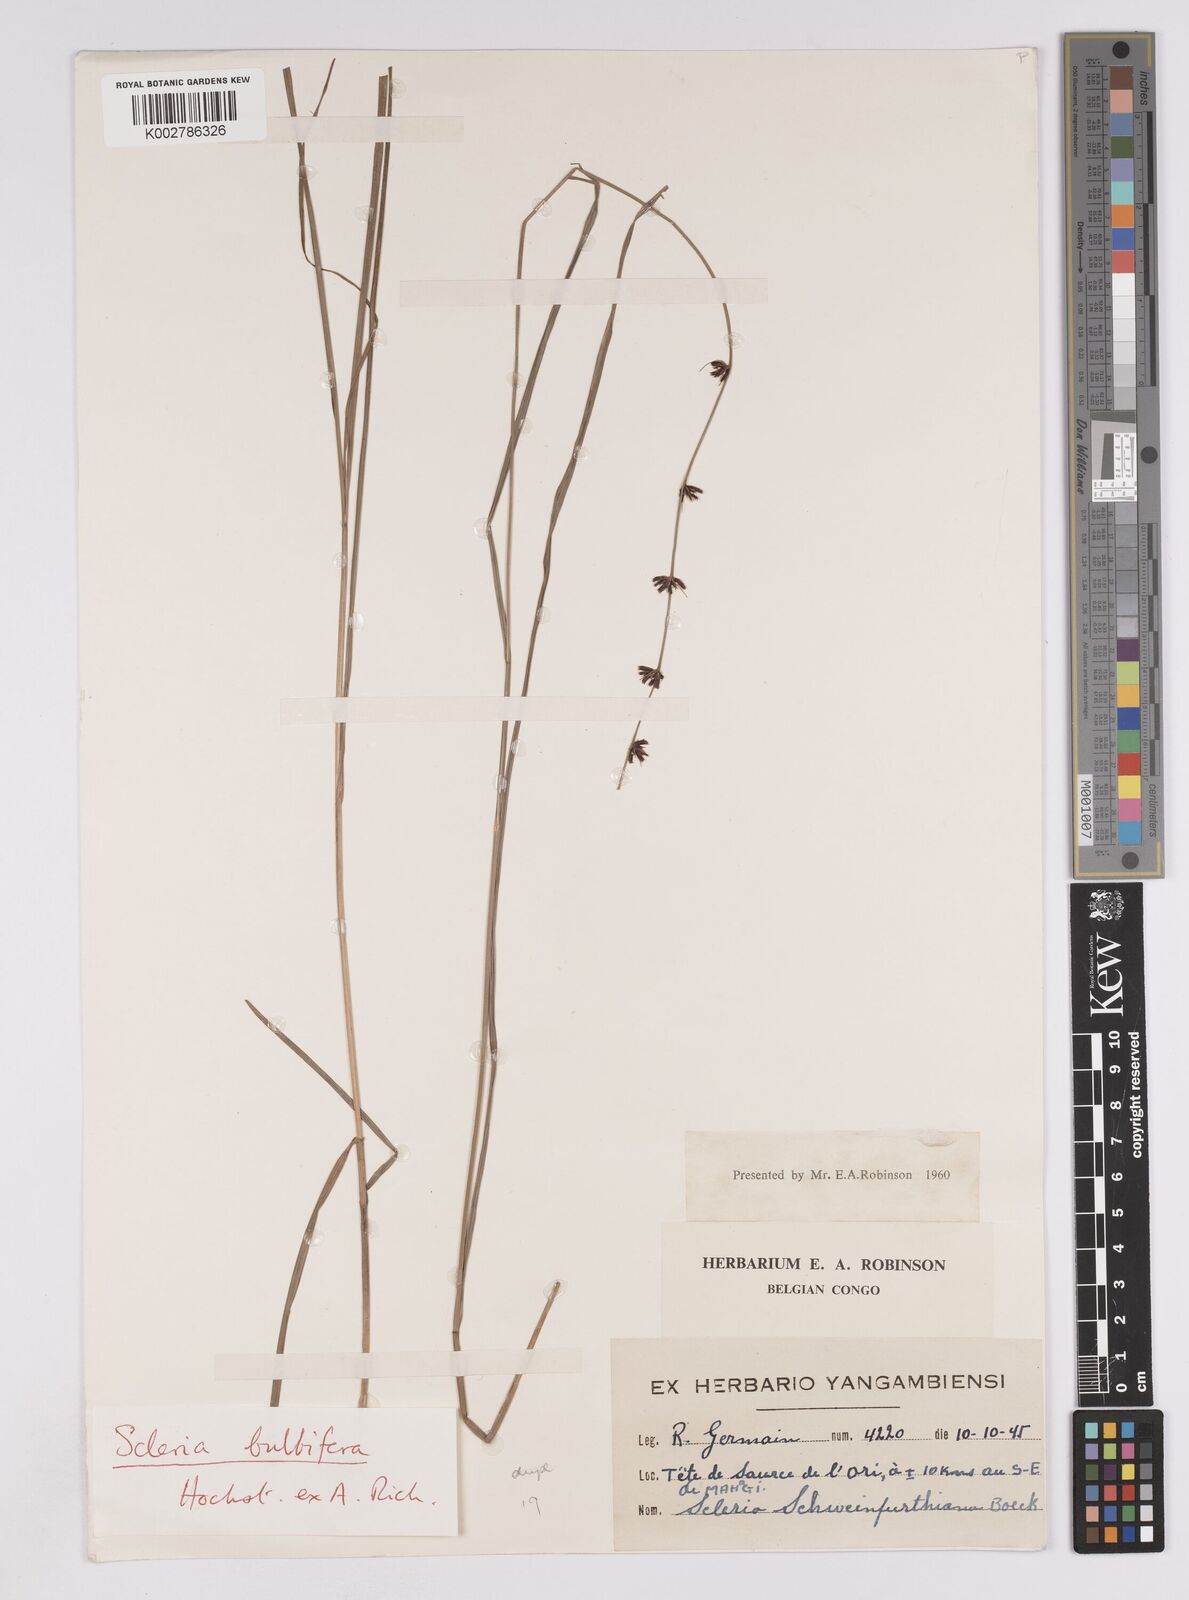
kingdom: Plantae
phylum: Tracheophyta
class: Liliopsida
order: Poales
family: Cyperaceae
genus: Scleria
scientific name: Scleria bulbifera
